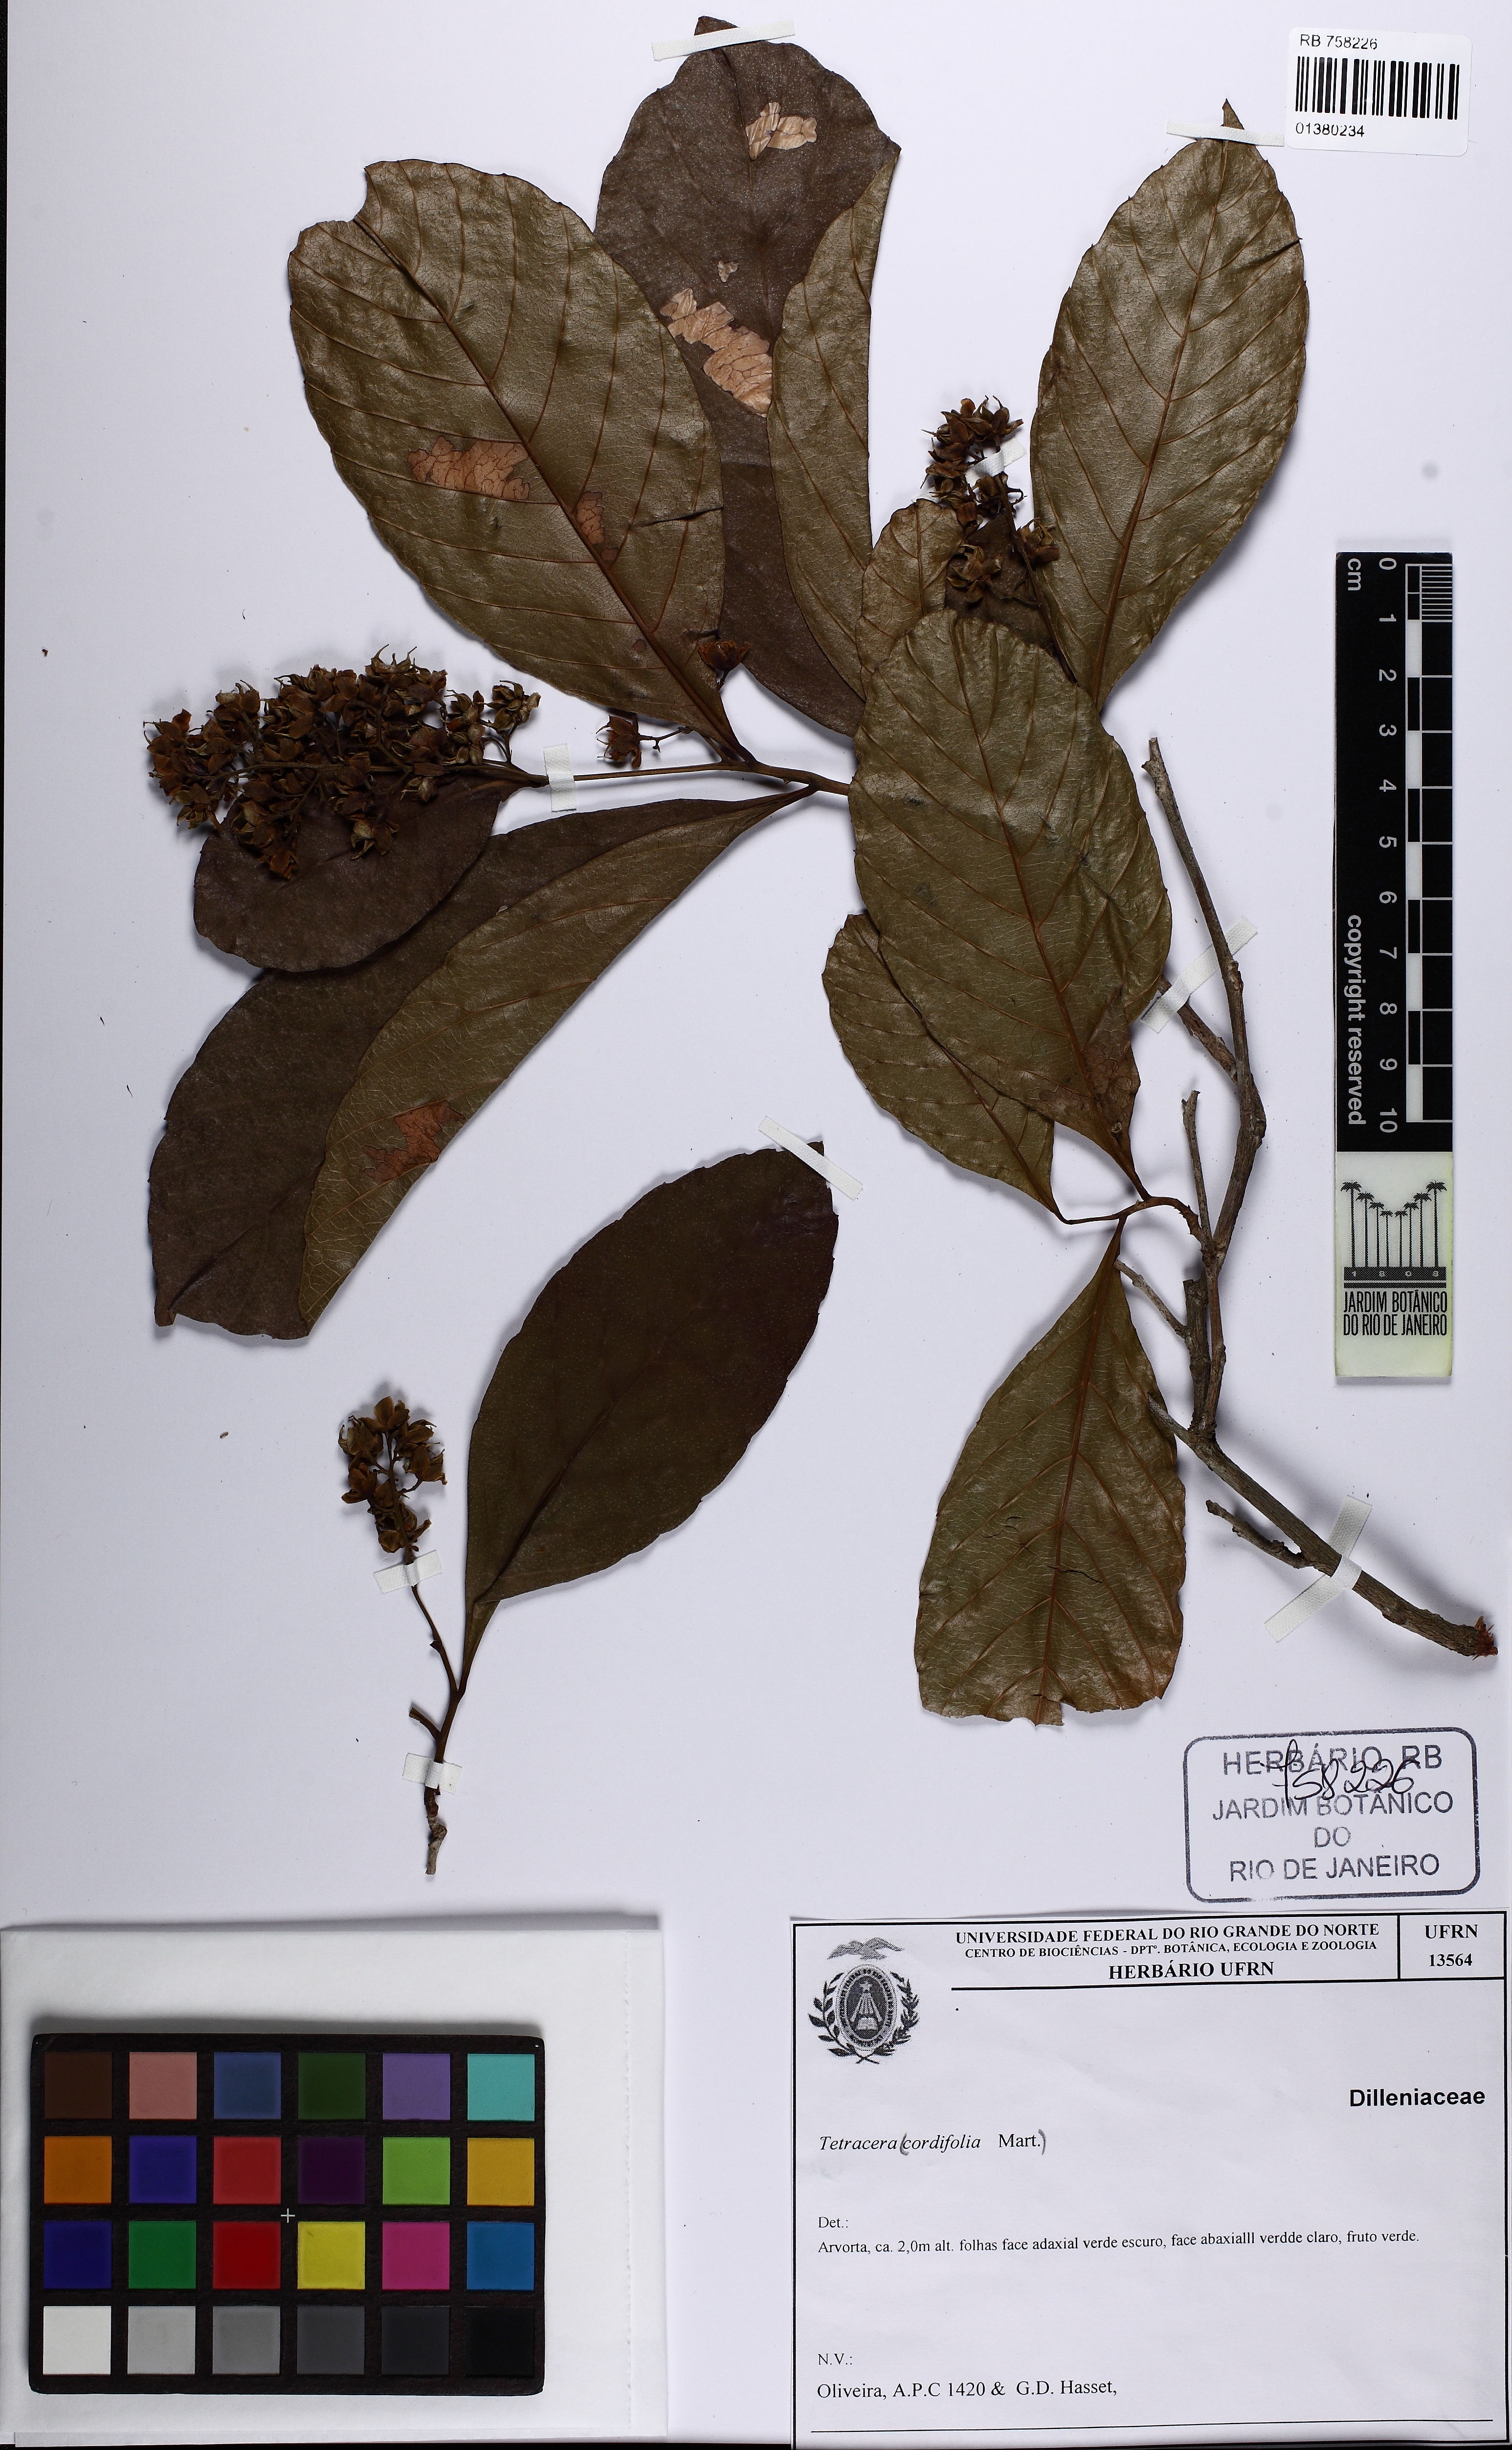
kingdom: Plantae
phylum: Tracheophyta
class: Magnoliopsida
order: Dilleniales
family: Dilleniaceae
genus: Tetracera
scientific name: Tetracera breyniana
